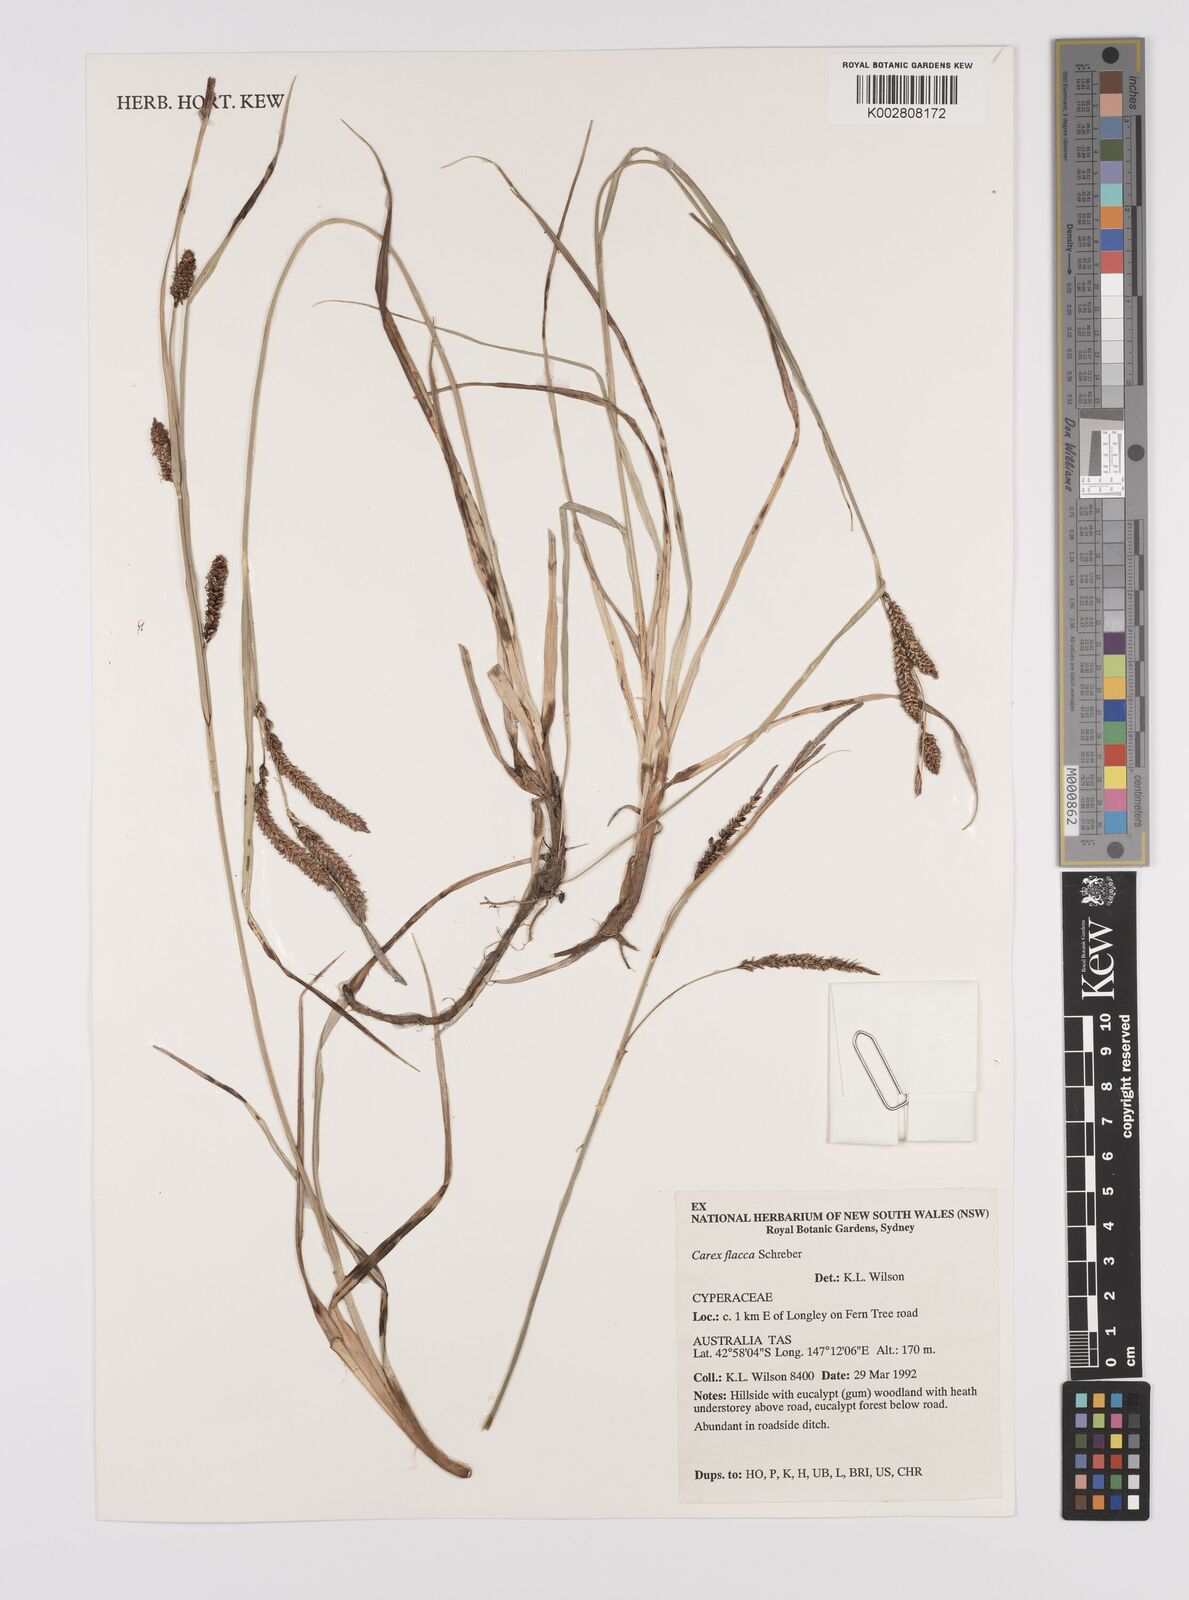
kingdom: Plantae
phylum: Tracheophyta
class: Liliopsida
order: Poales
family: Cyperaceae
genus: Carex
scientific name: Carex flacca
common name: Glaucous sedge
